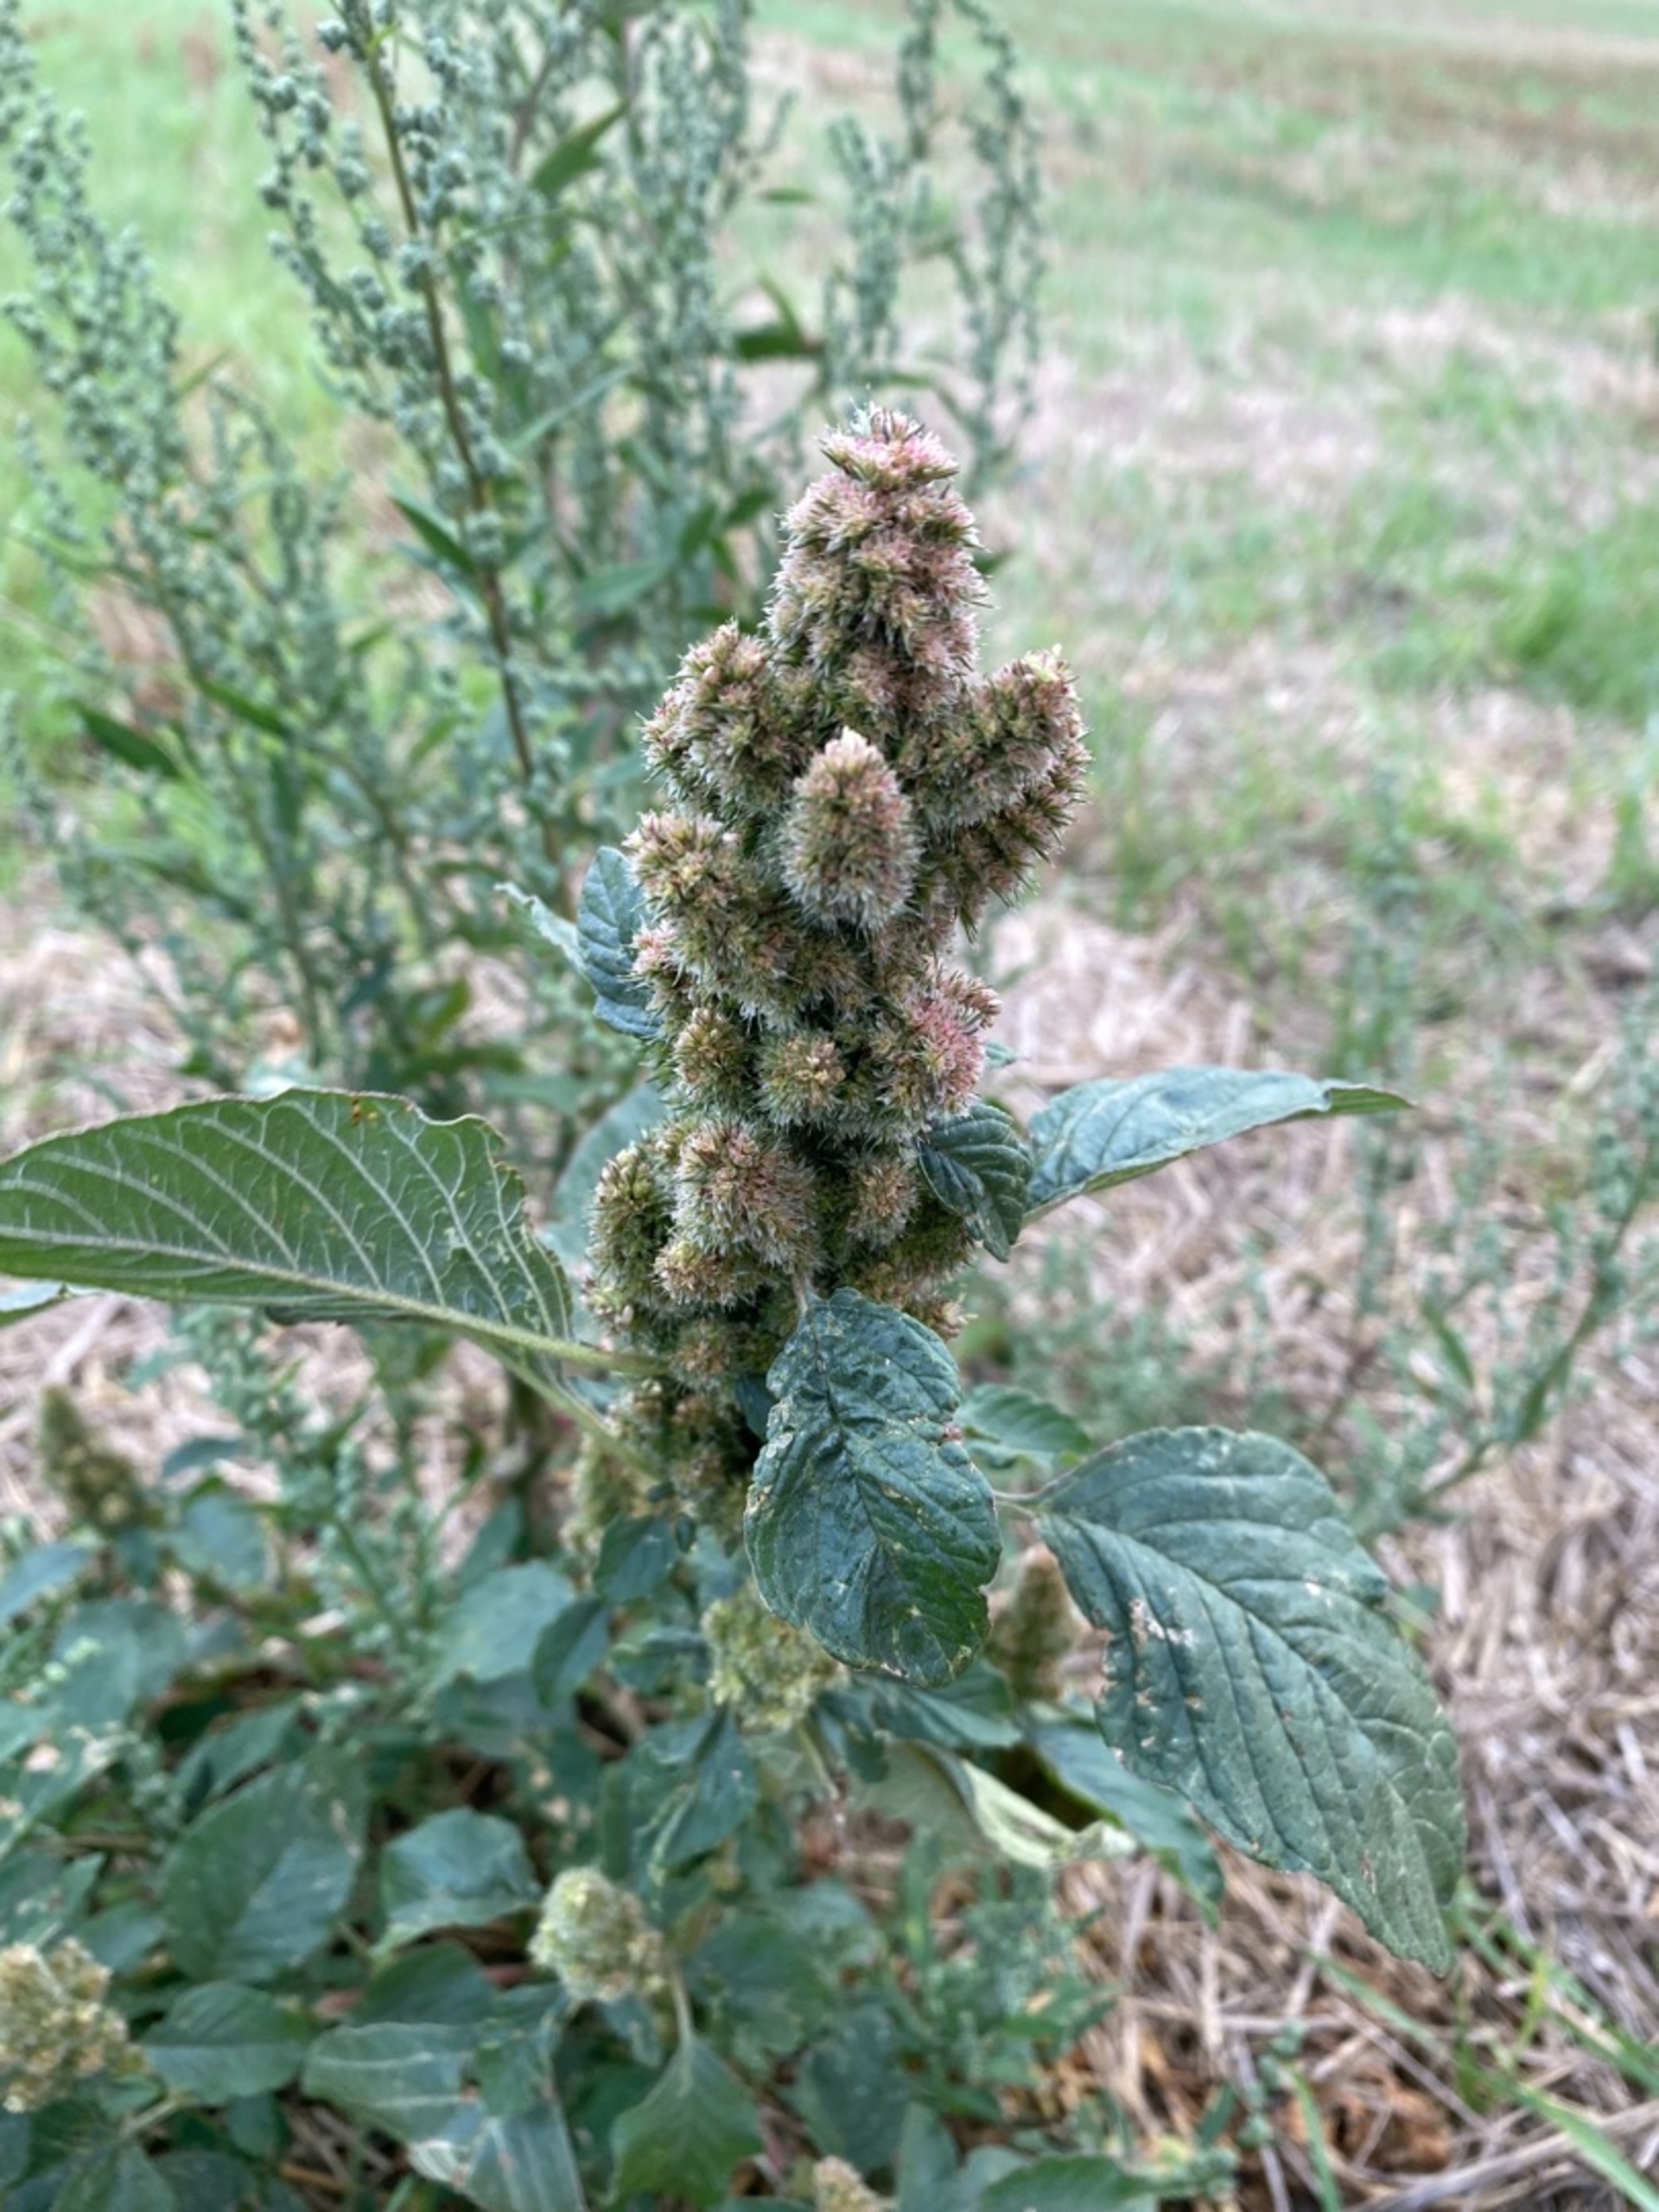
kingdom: Plantae
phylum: Tracheophyta
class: Magnoliopsida
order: Caryophyllales
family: Amaranthaceae
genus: Amaranthus
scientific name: Amaranthus retroflexus
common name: Opret amarant
